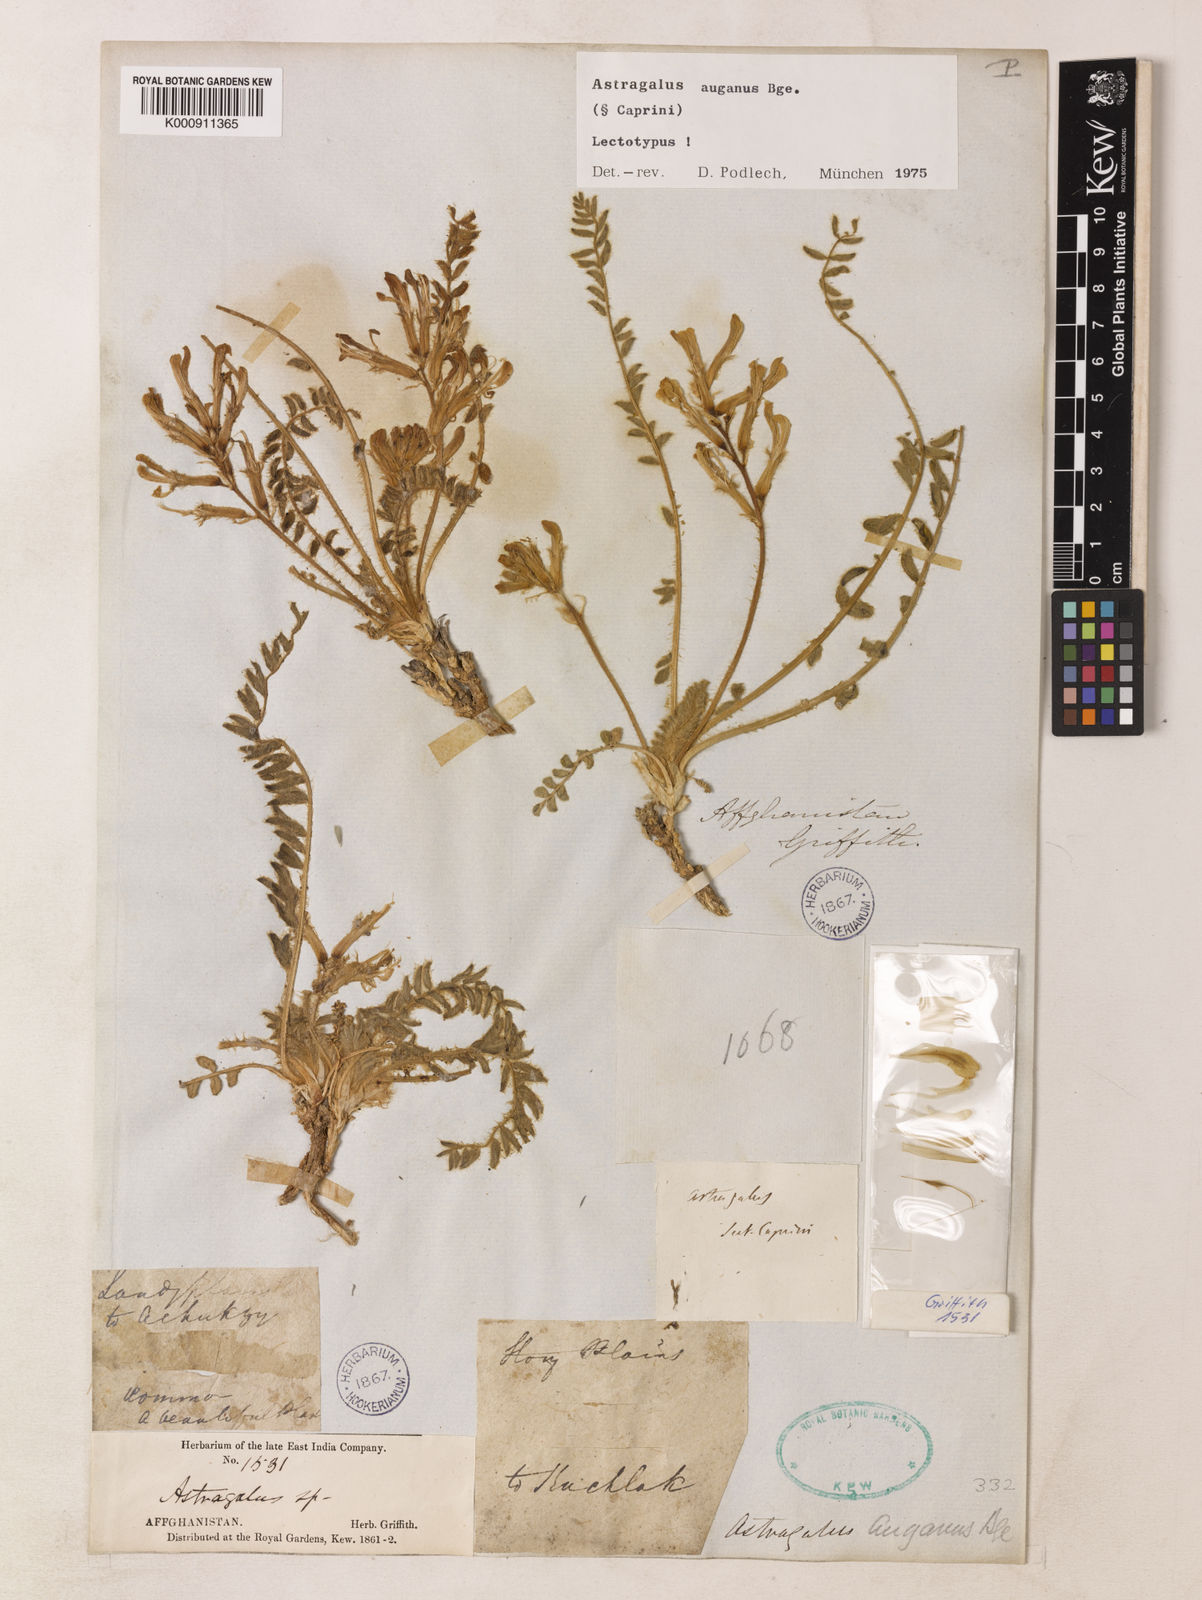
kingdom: Plantae
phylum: Tracheophyta
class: Magnoliopsida
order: Fabales
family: Fabaceae
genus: Astragalus
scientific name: Astragalus auganus
